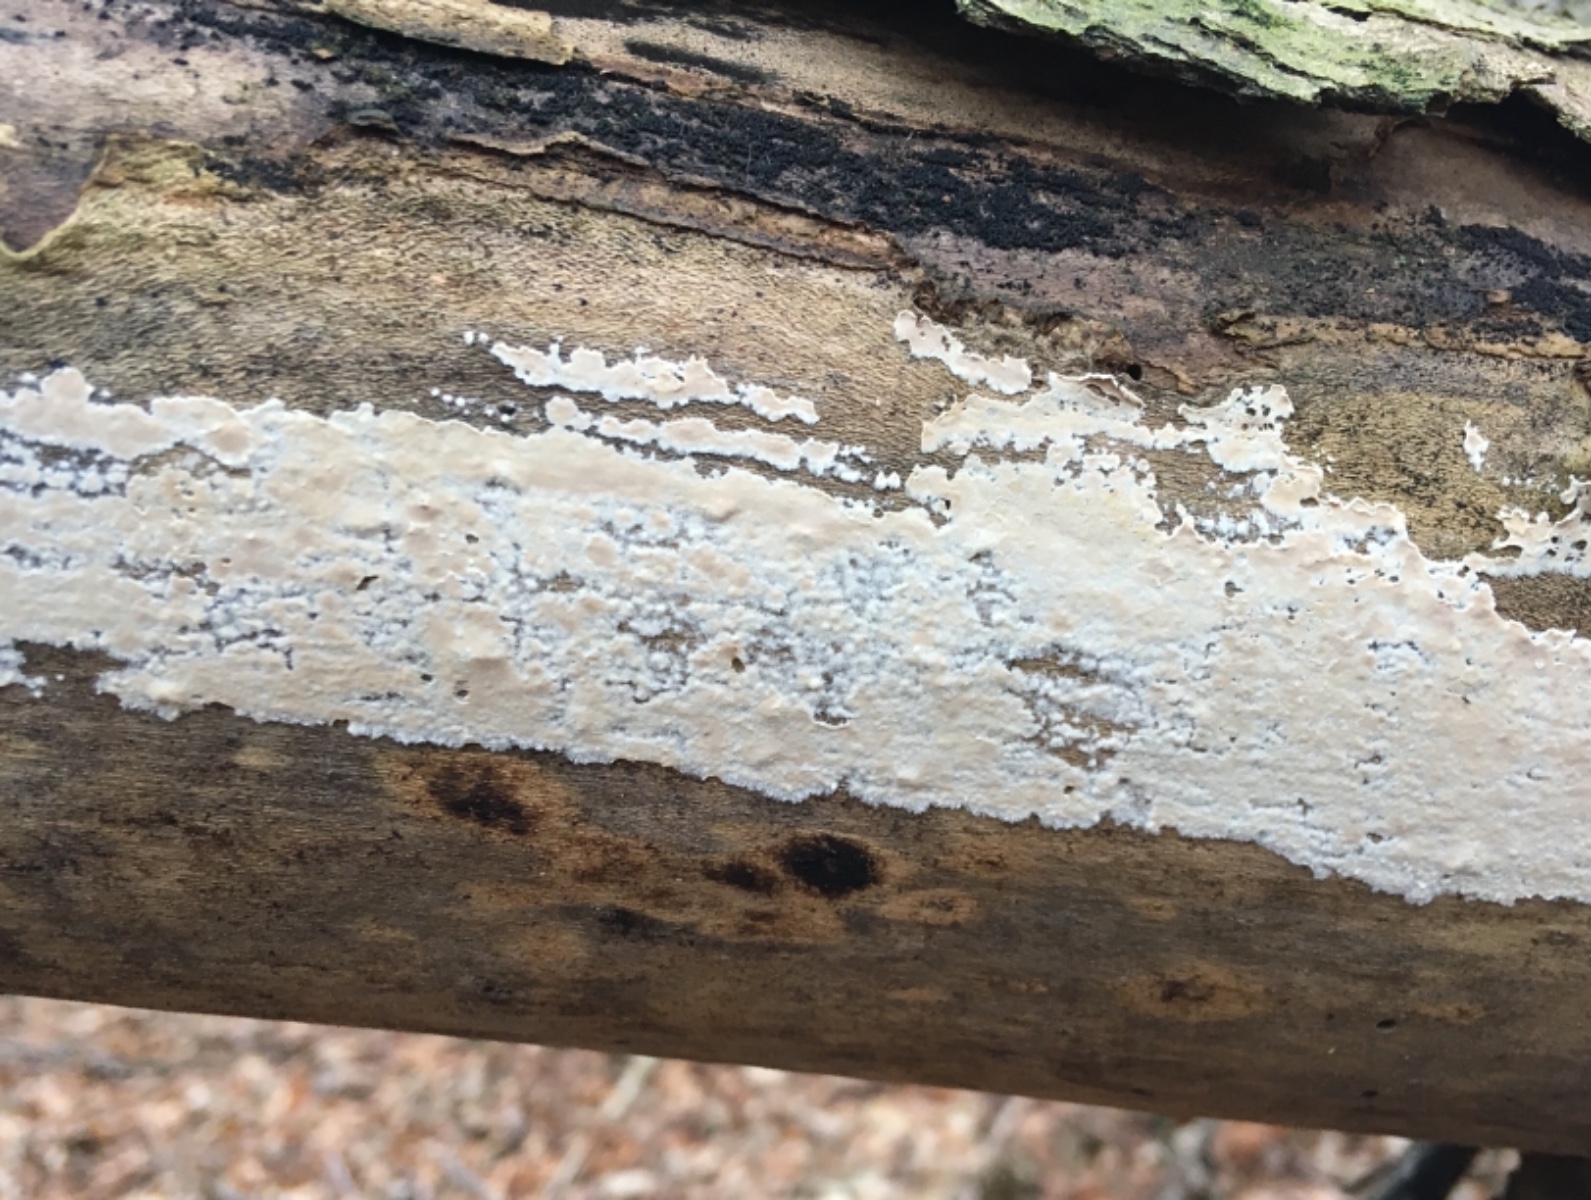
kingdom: Fungi
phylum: Basidiomycota
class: Agaricomycetes
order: Agaricales
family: Physalacriaceae
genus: Cylindrobasidium
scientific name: Cylindrobasidium evolvens
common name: sprækkehinde
